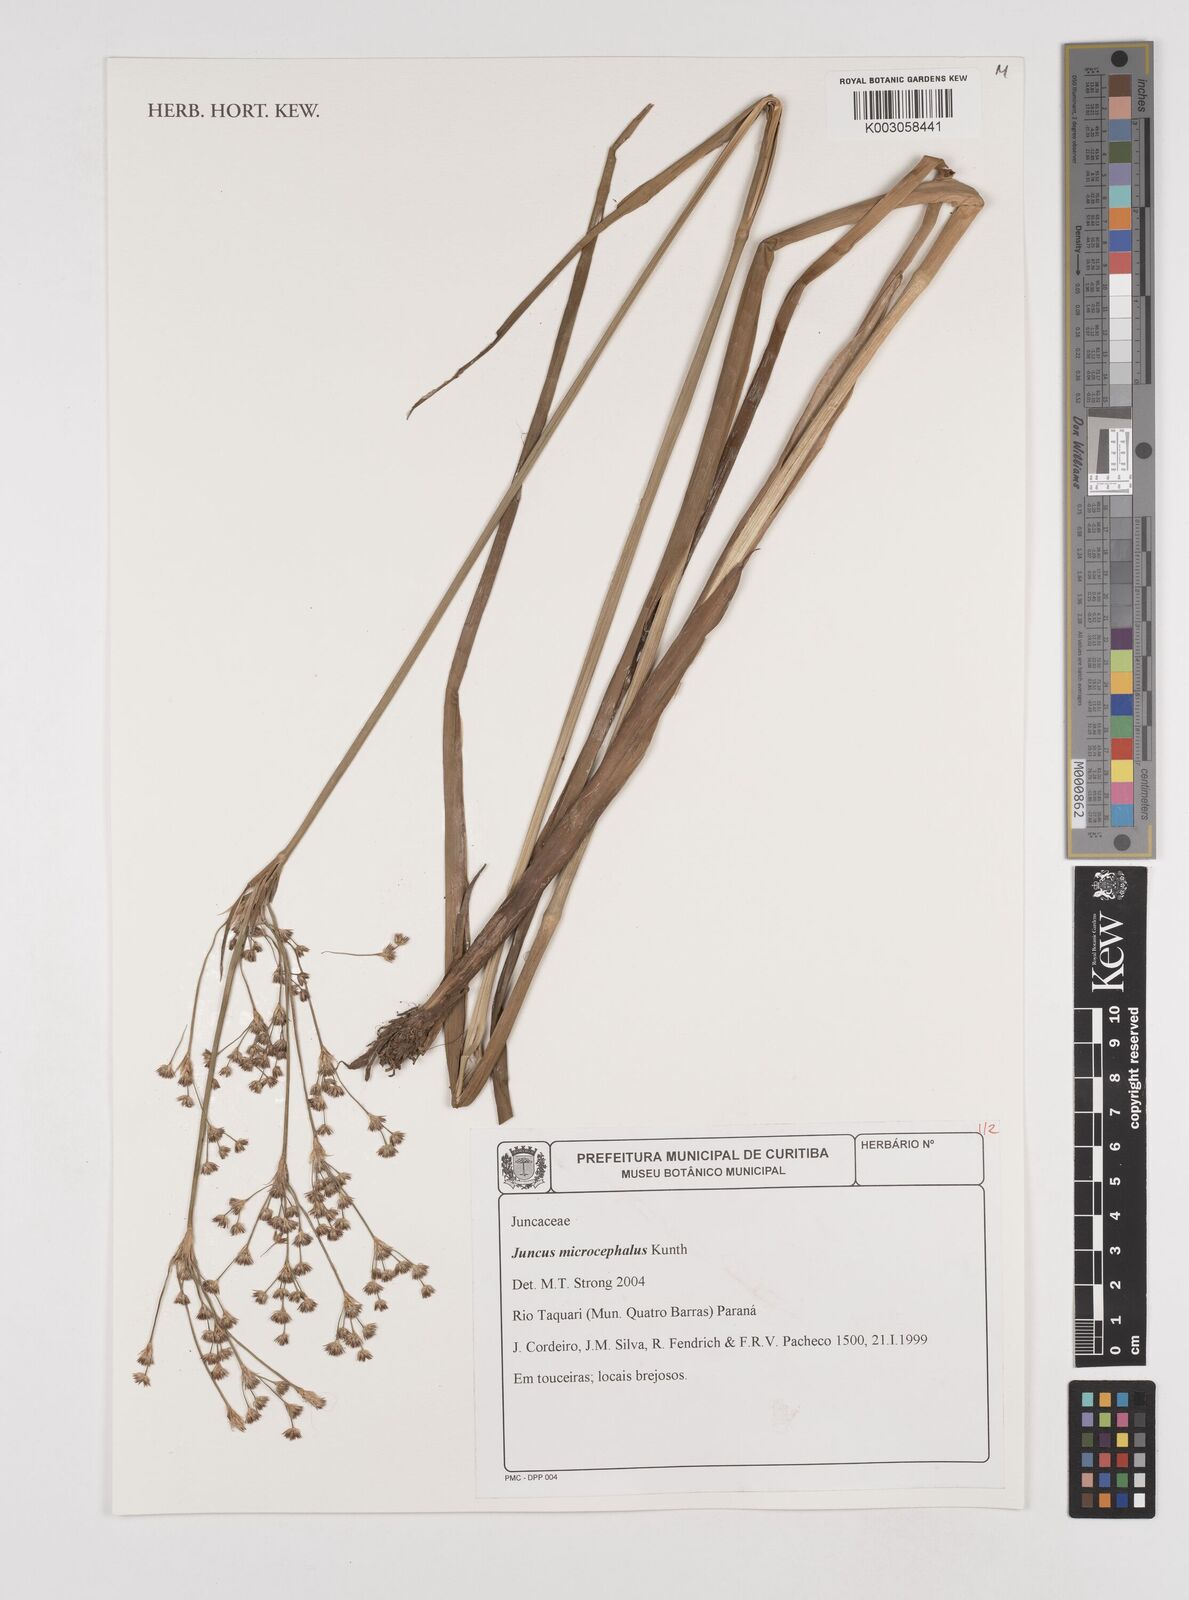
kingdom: Plantae
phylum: Tracheophyta
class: Liliopsida
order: Poales
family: Juncaceae
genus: Juncus
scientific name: Juncus microcephalus
